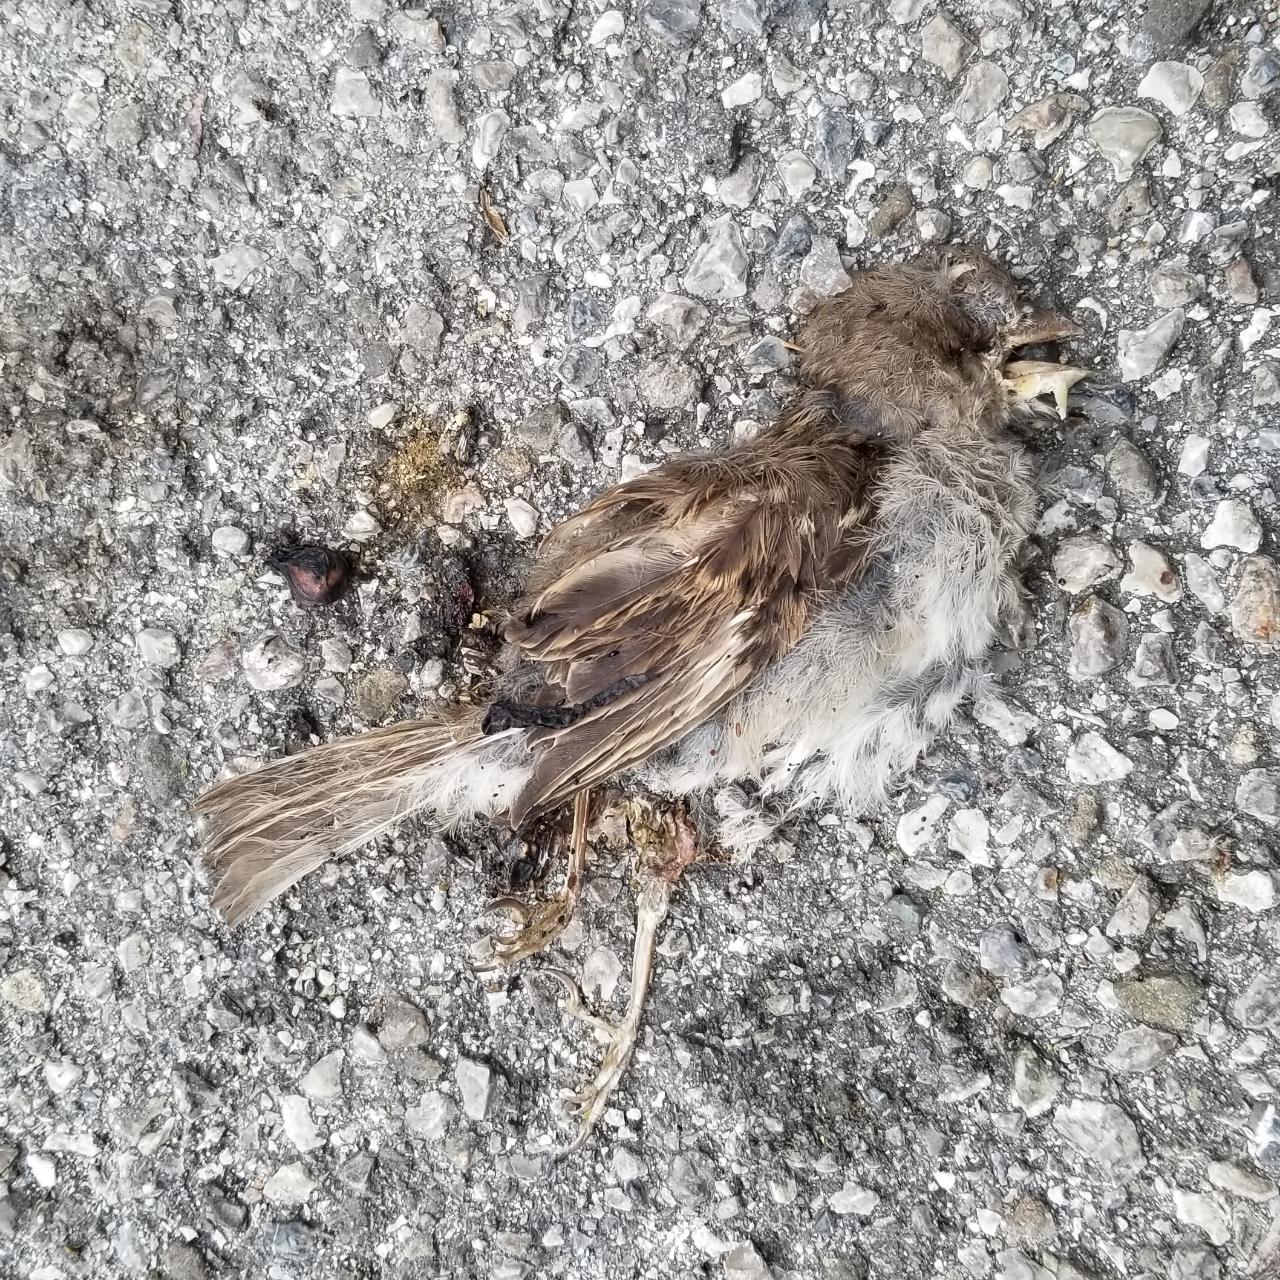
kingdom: Animalia
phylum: Chordata
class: Aves
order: Passeriformes
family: Passeridae
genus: Passer
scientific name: Passer
